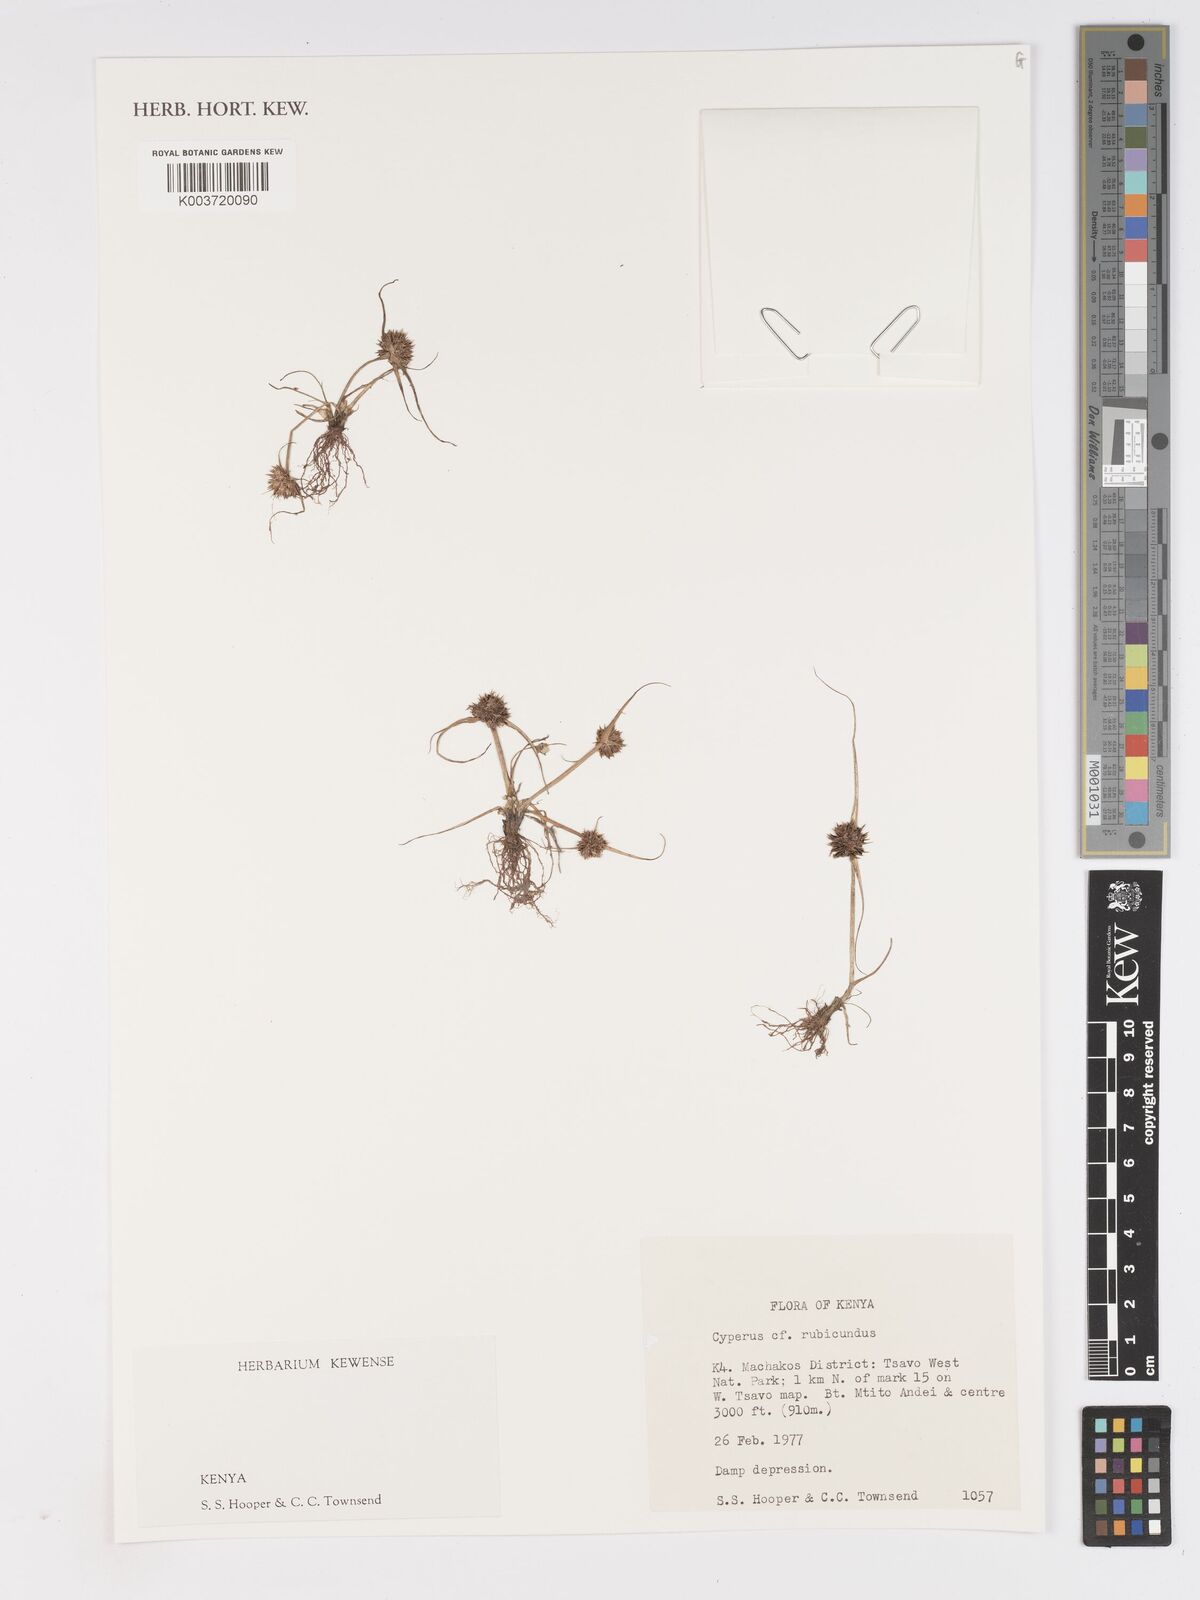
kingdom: Plantae
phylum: Tracheophyta
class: Liliopsida
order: Poales
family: Cyperaceae
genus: Cyperus
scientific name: Cyperus rubicundus
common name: Coco-grass
